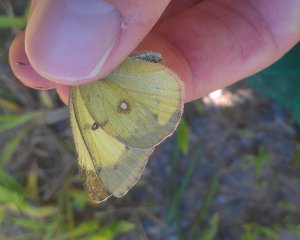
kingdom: Animalia
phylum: Arthropoda
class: Insecta
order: Lepidoptera
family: Pieridae
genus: Colias
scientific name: Colias philodice
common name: Clouded Sulphur
